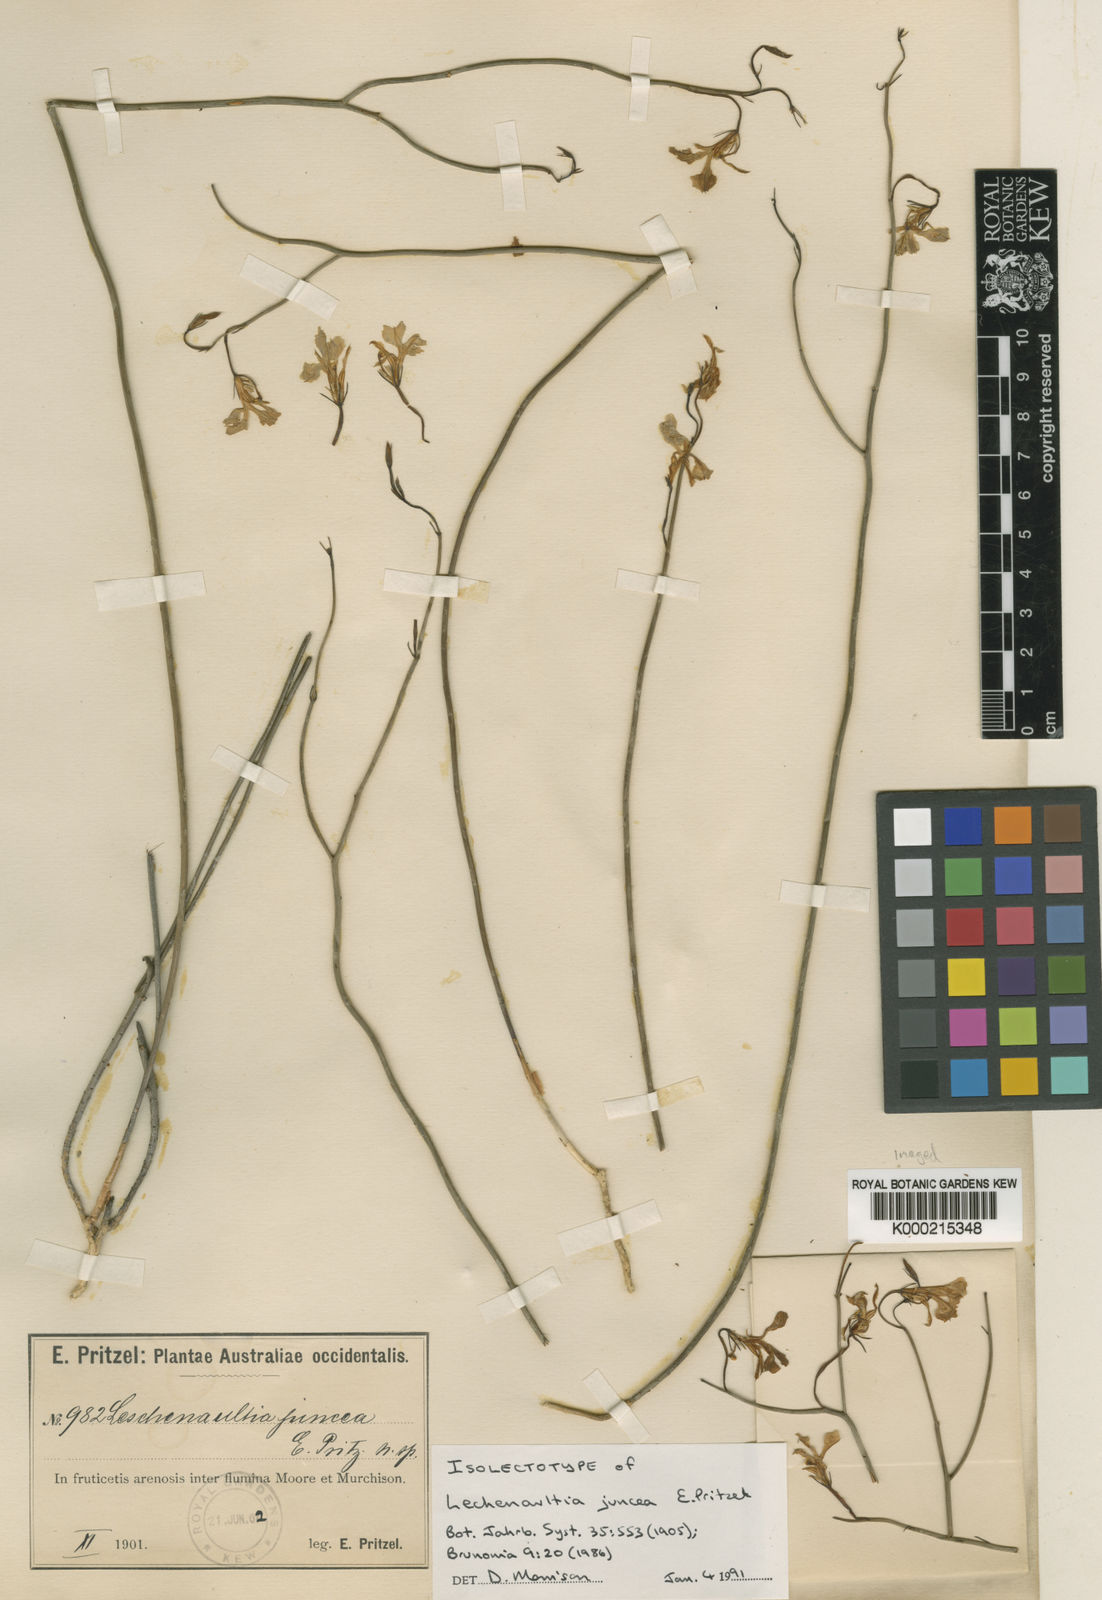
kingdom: Plantae
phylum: Tracheophyta
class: Magnoliopsida
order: Asterales
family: Goodeniaceae
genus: Leschenaultia
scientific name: Leschenaultia juncea
